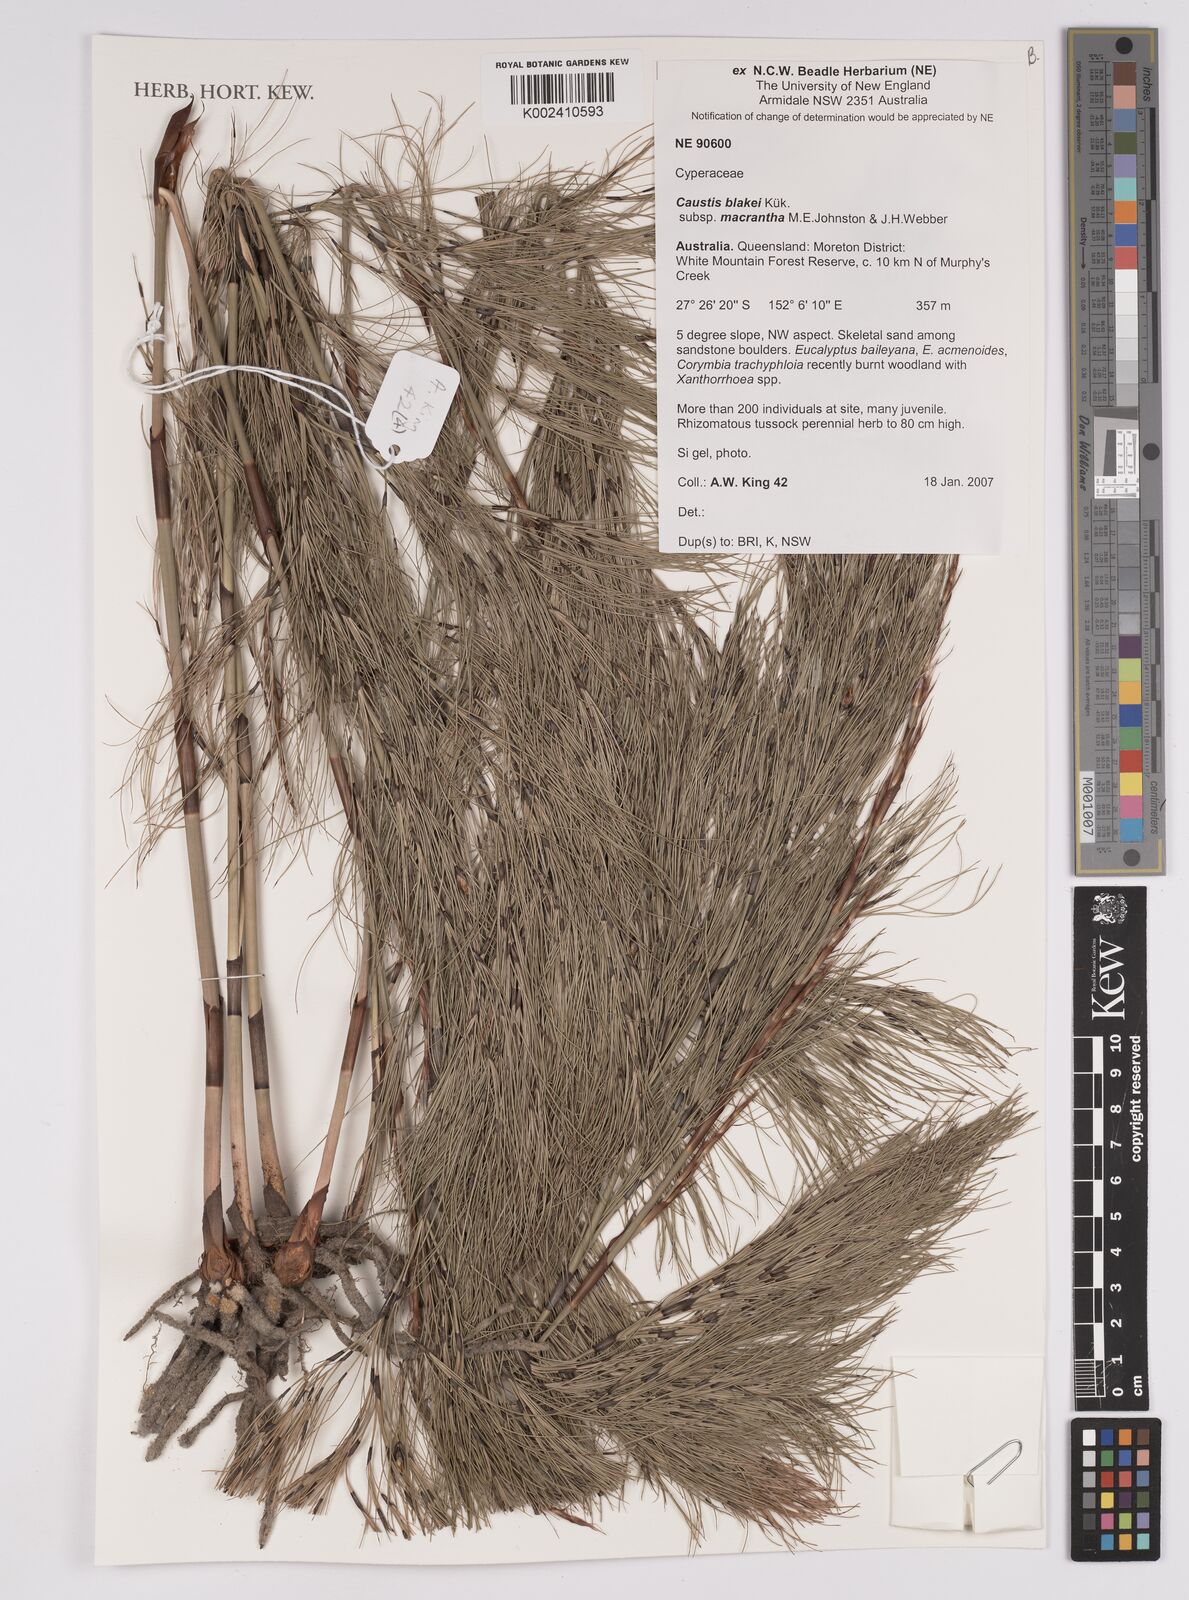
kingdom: Plantae
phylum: Tracheophyta
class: Liliopsida
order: Poales
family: Cyperaceae
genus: Caustis
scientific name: Caustis blakei
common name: Foxtail-fern
